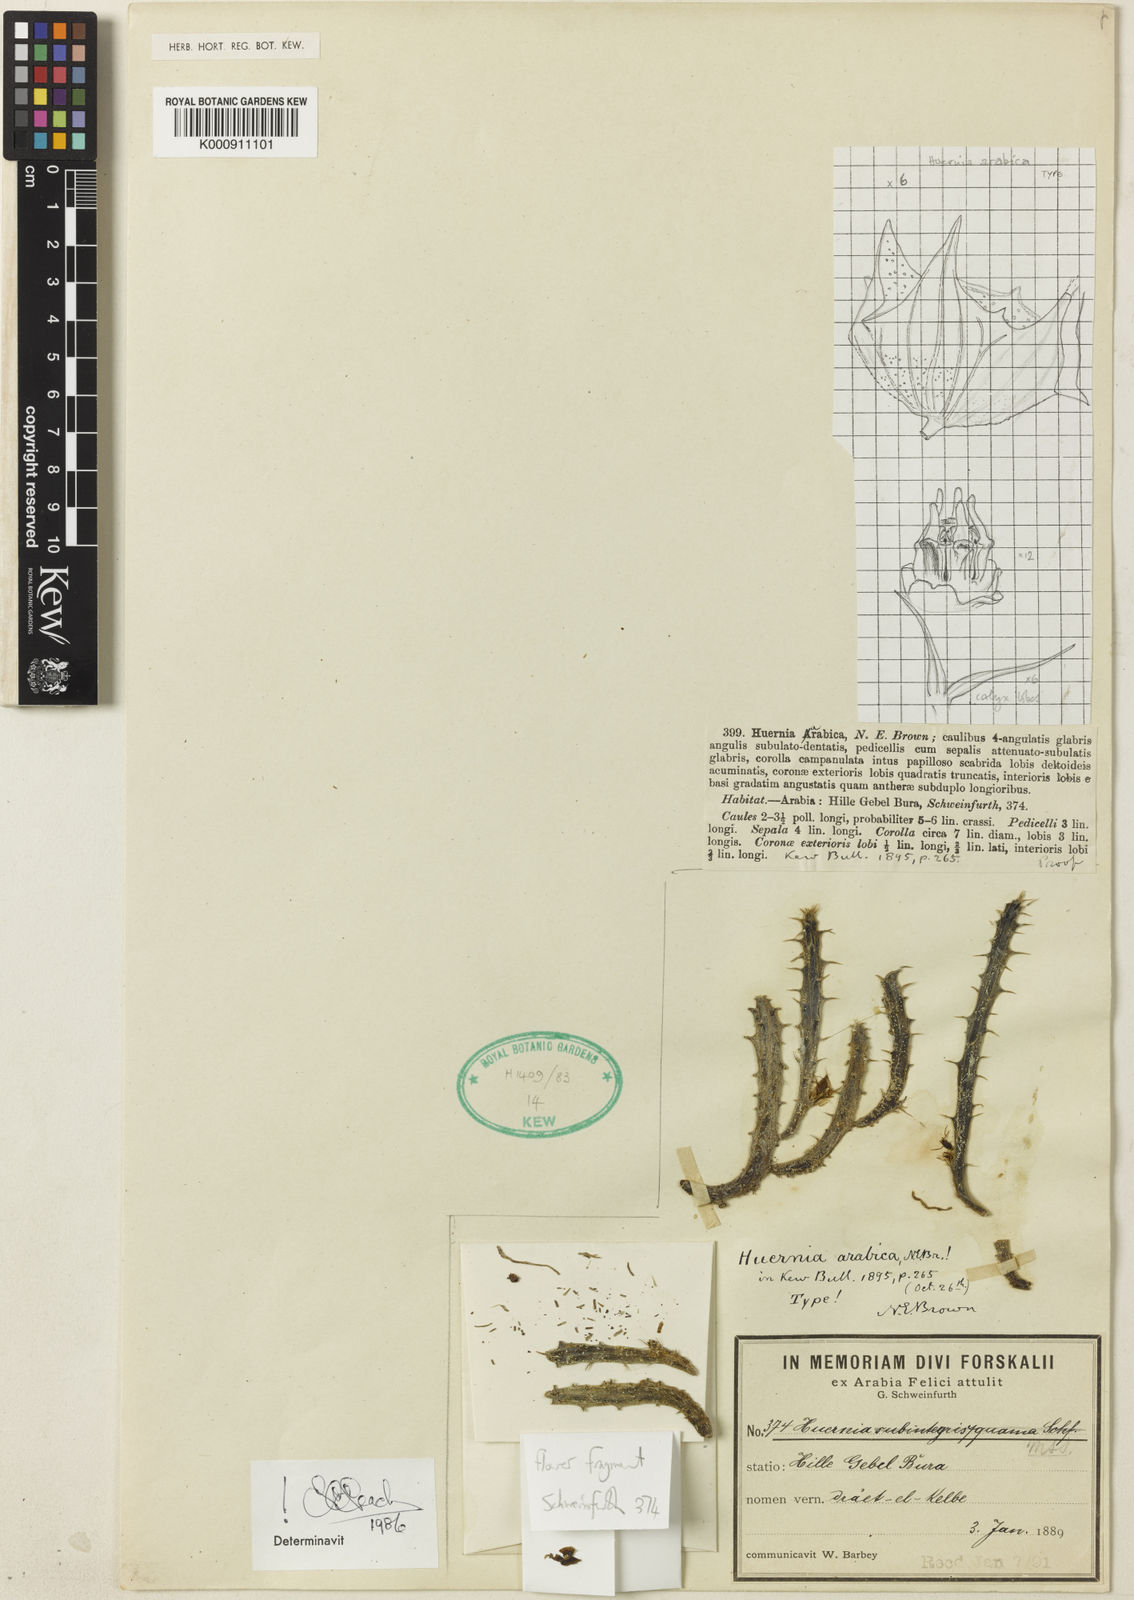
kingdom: Plantae
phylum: Tracheophyta
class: Magnoliopsida
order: Gentianales
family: Apocynaceae
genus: Huernia
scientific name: Huernia
